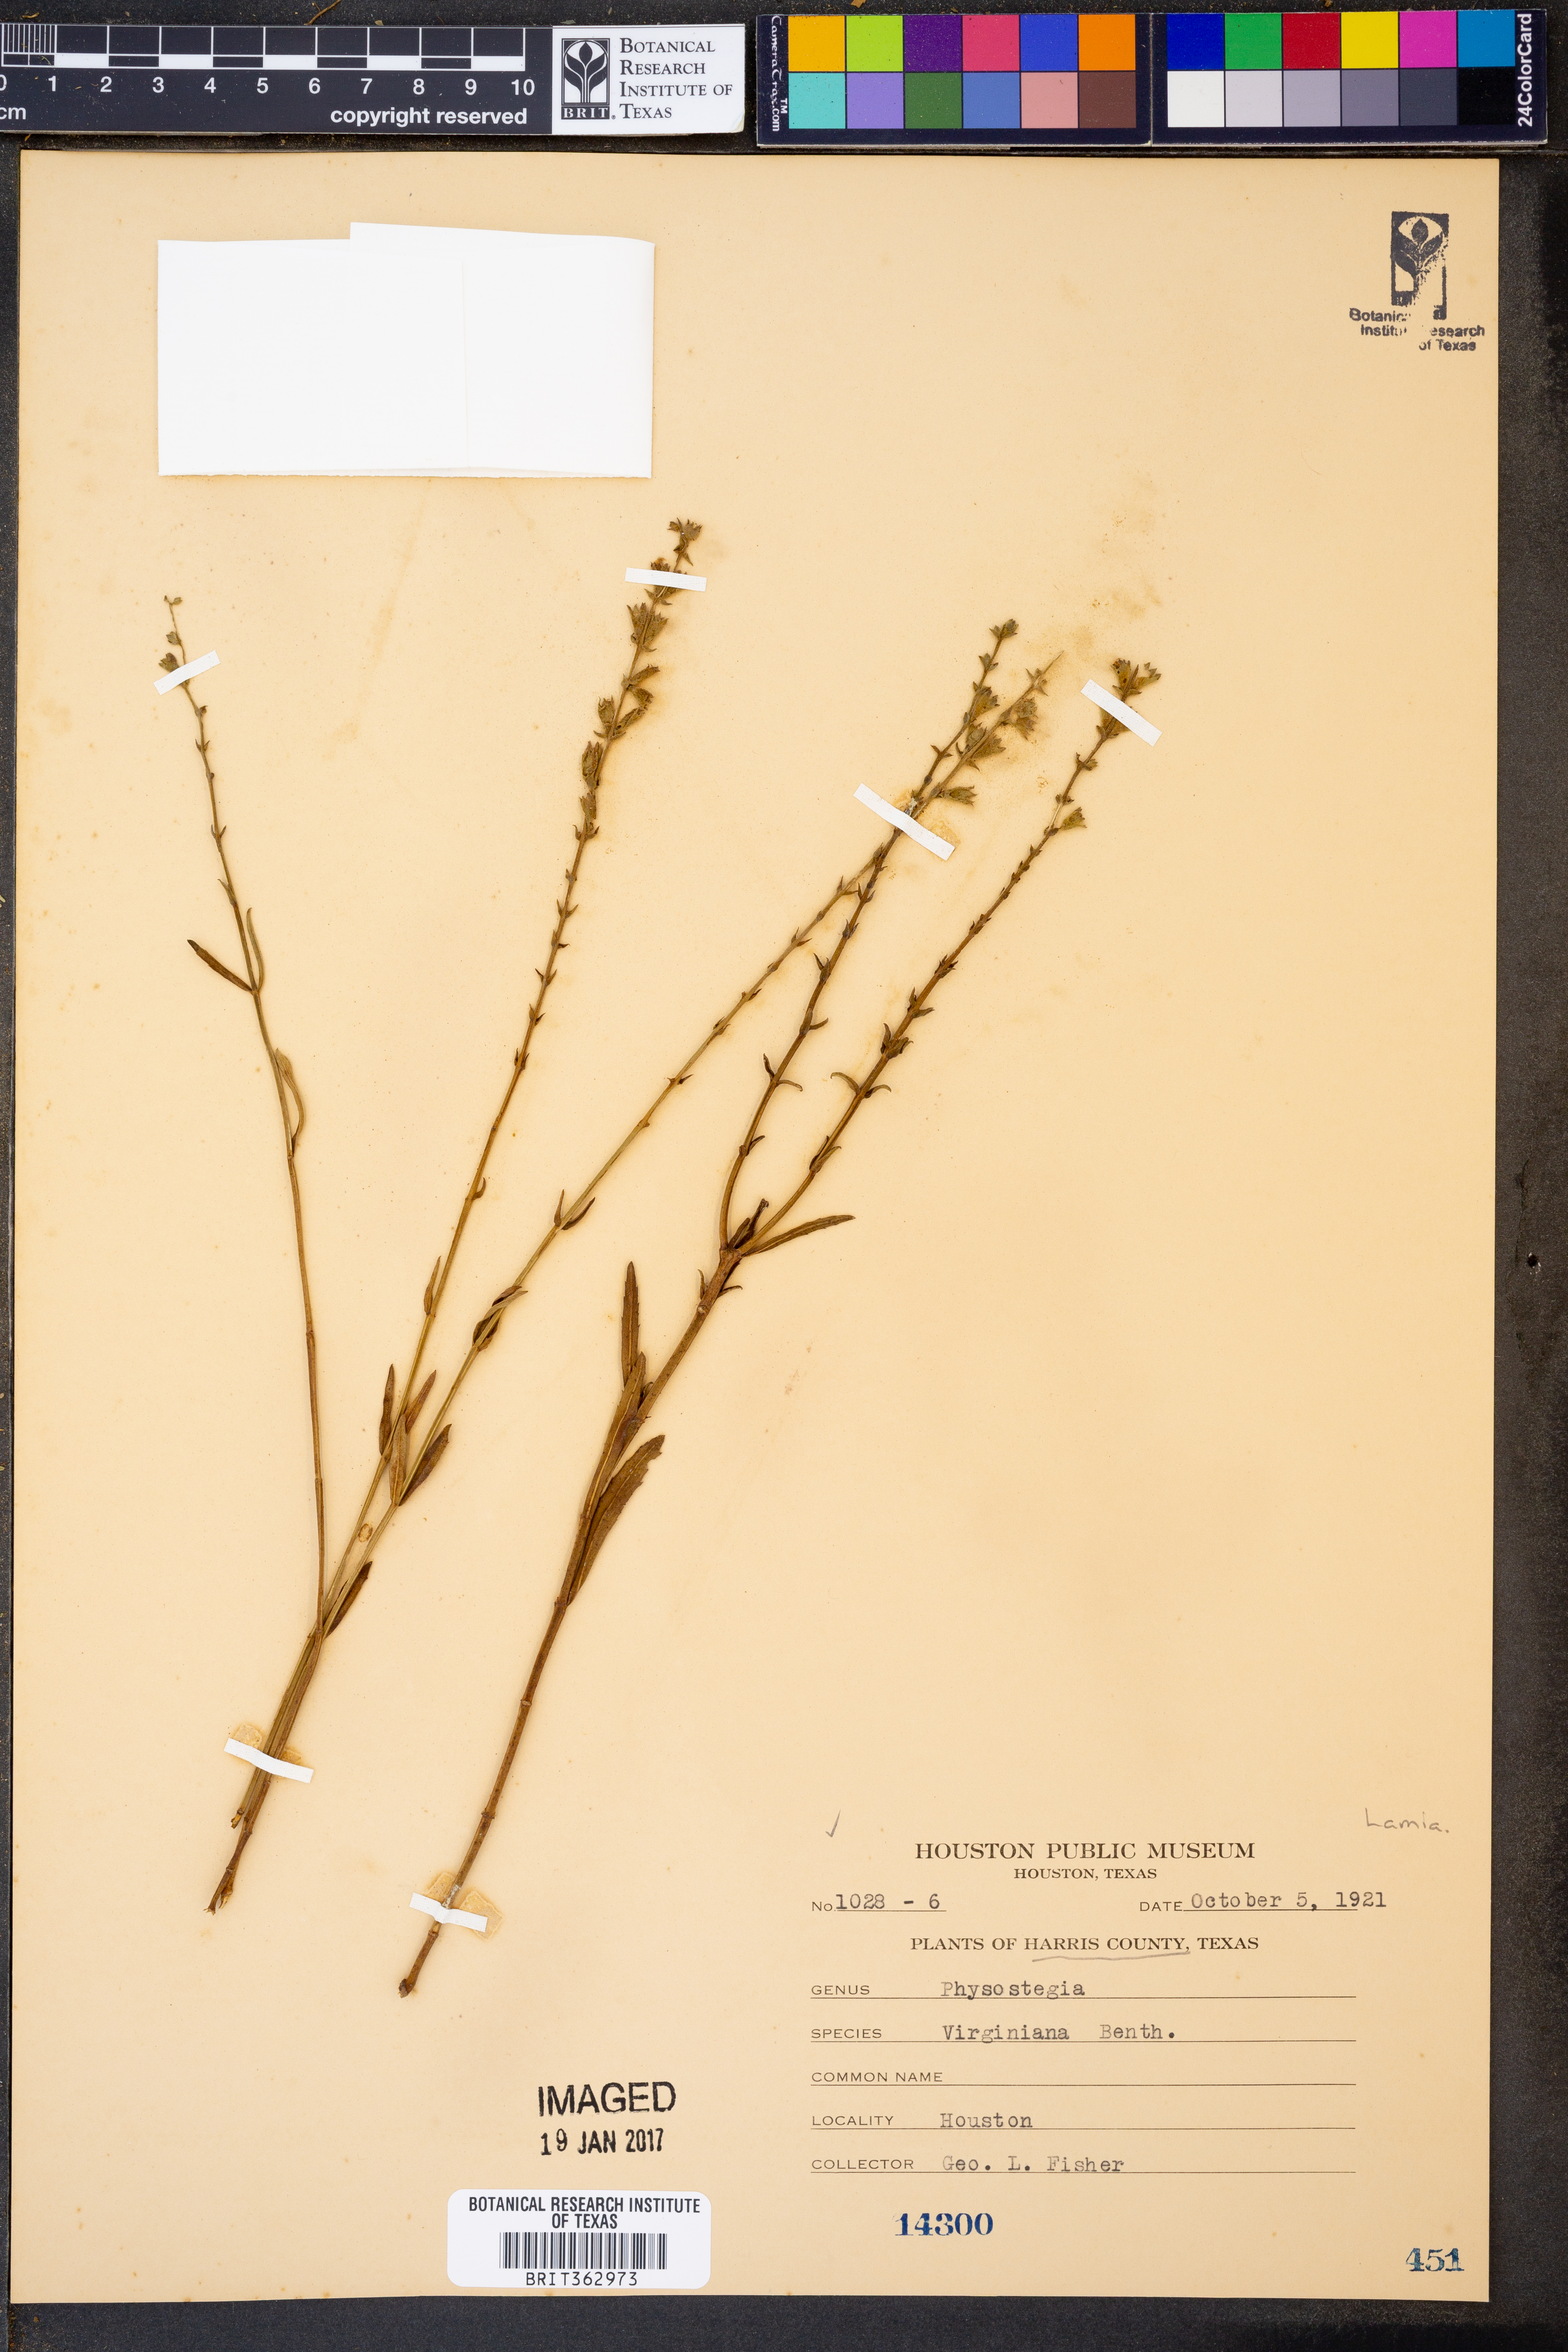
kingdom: Plantae
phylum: Tracheophyta
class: Magnoliopsida
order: Lamiales
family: Lamiaceae
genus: Physostegia
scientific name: Physostegia virginiana
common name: Obedient-plant
